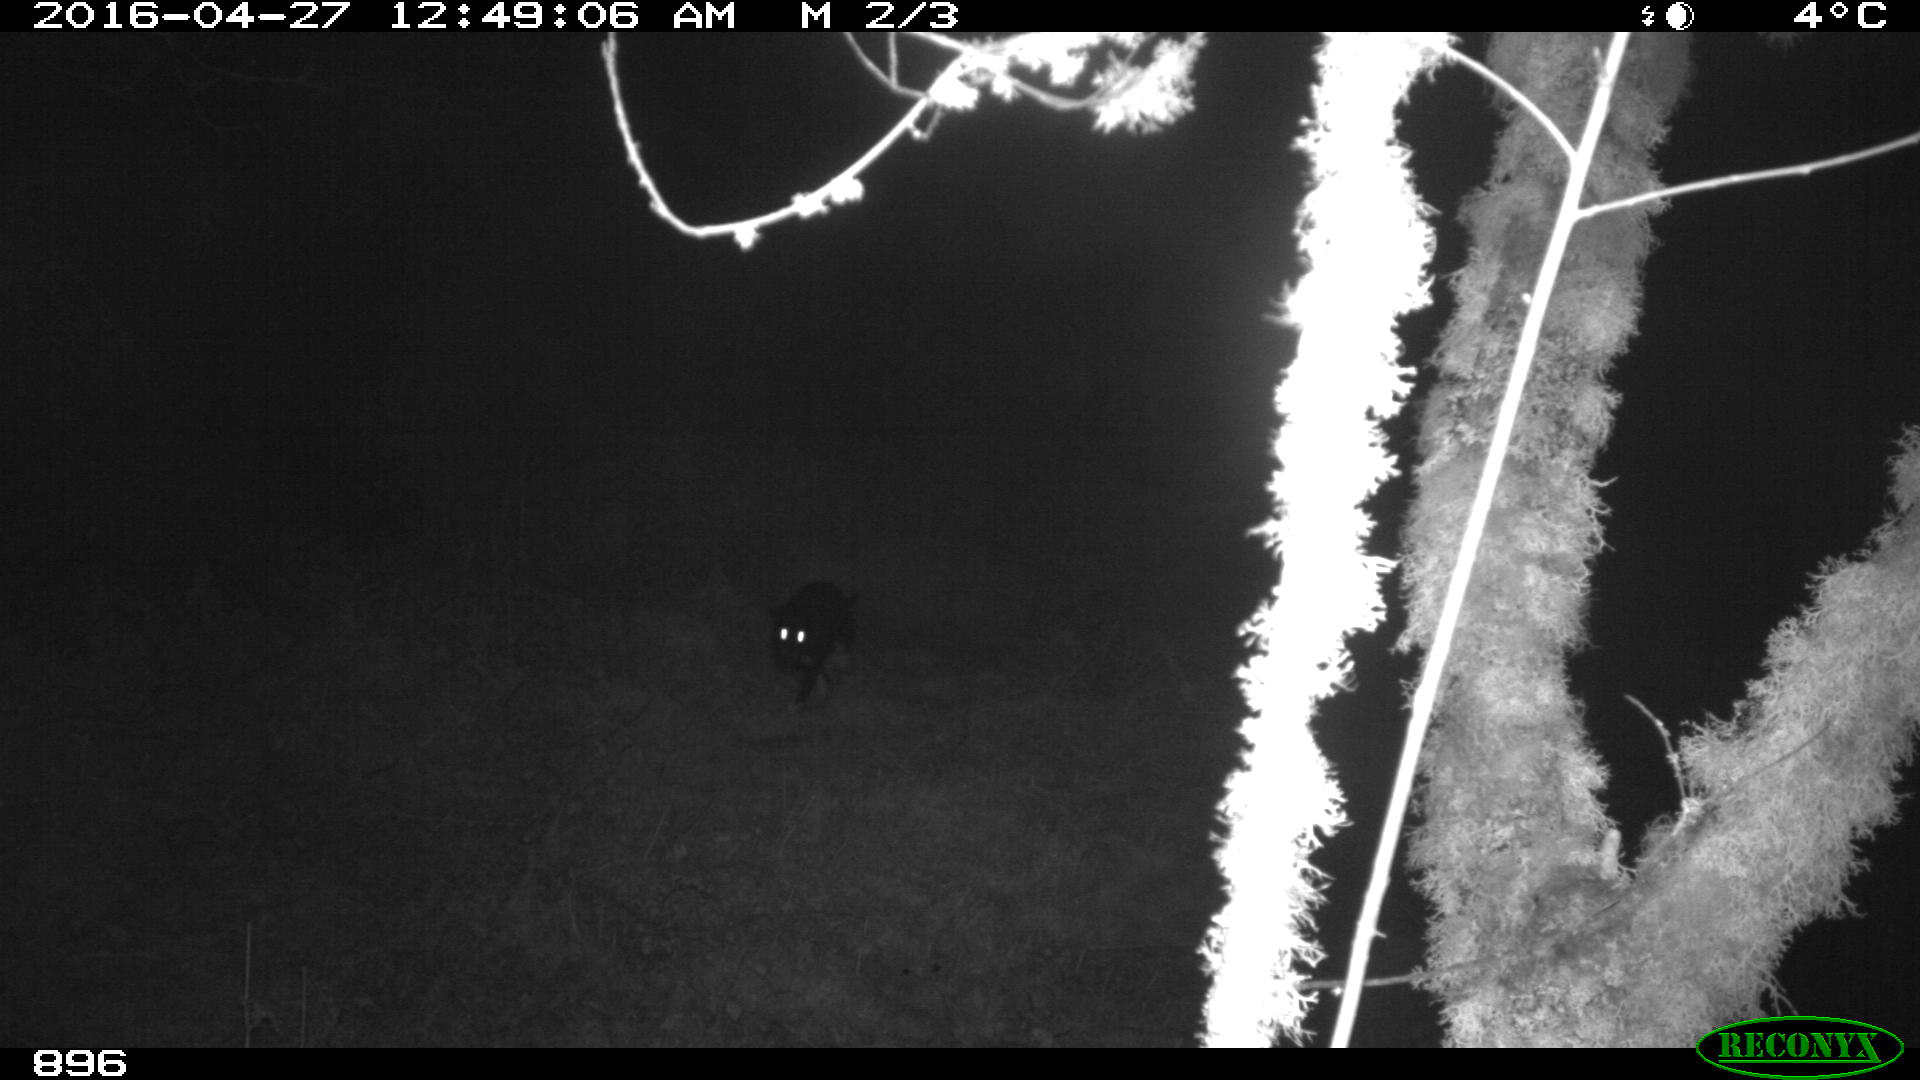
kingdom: Animalia
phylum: Chordata
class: Mammalia
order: Carnivora
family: Canidae
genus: Canis
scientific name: Canis lupus
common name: Gray wolf
